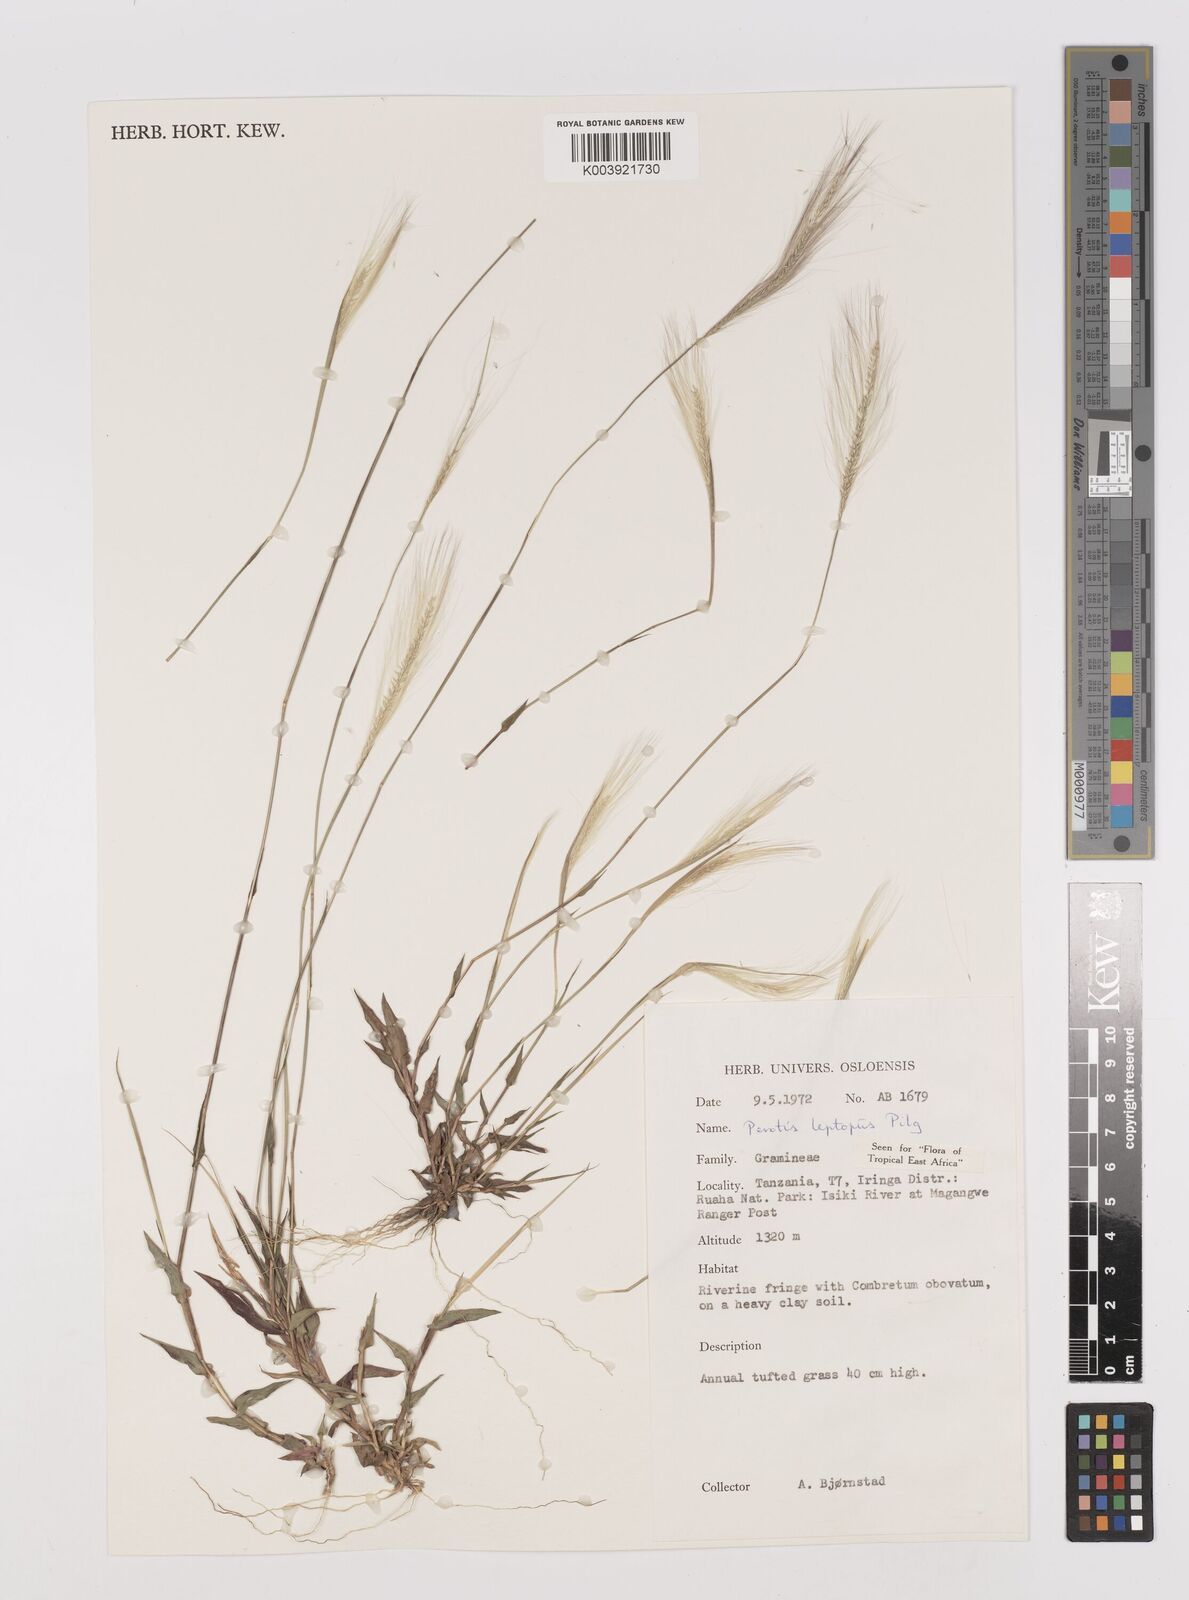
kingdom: Plantae
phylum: Tracheophyta
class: Liliopsida
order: Poales
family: Poaceae
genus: Perotis
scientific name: Perotis leptopus
